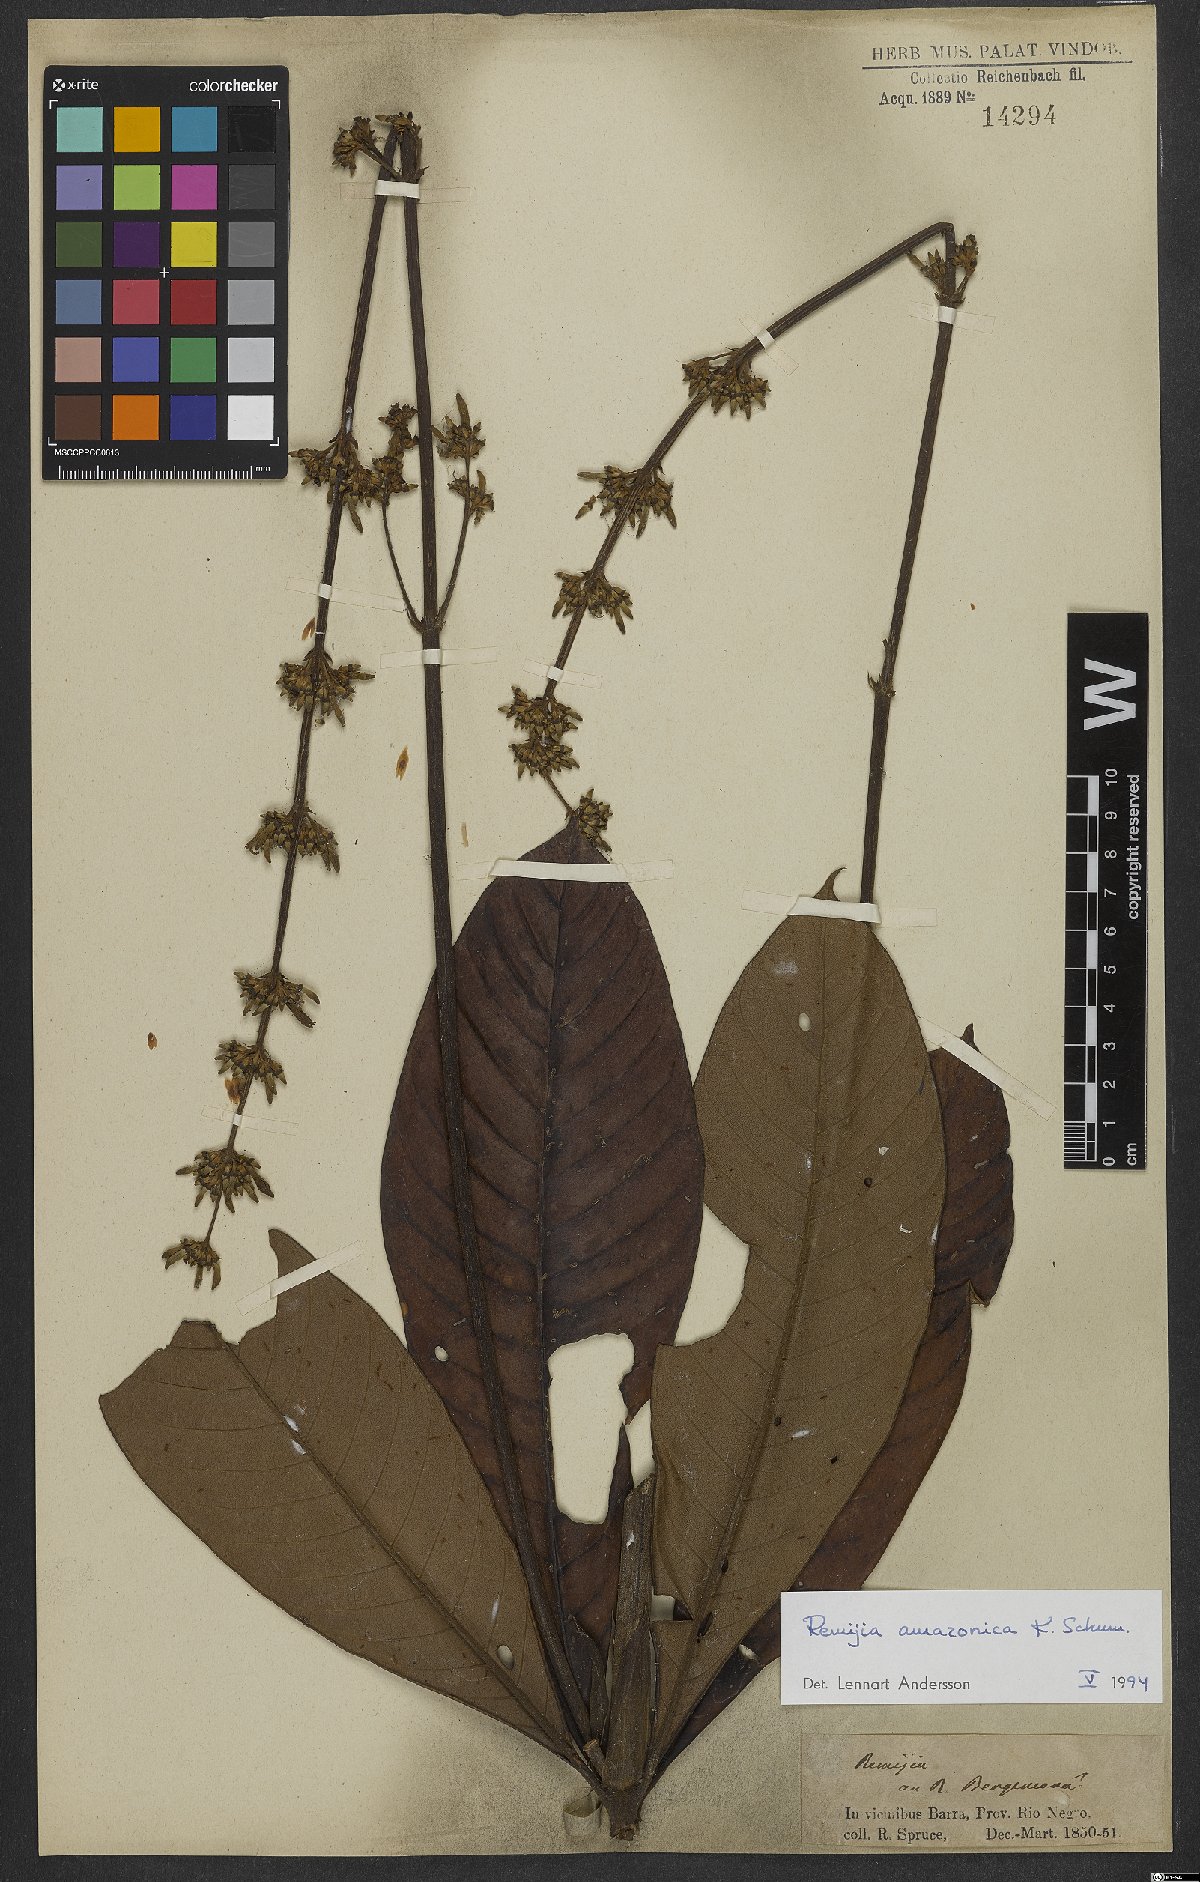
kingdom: Plantae
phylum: Tracheophyta
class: Magnoliopsida
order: Gentianales
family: Rubiaceae
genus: Remijia
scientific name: Remijia amazonica
